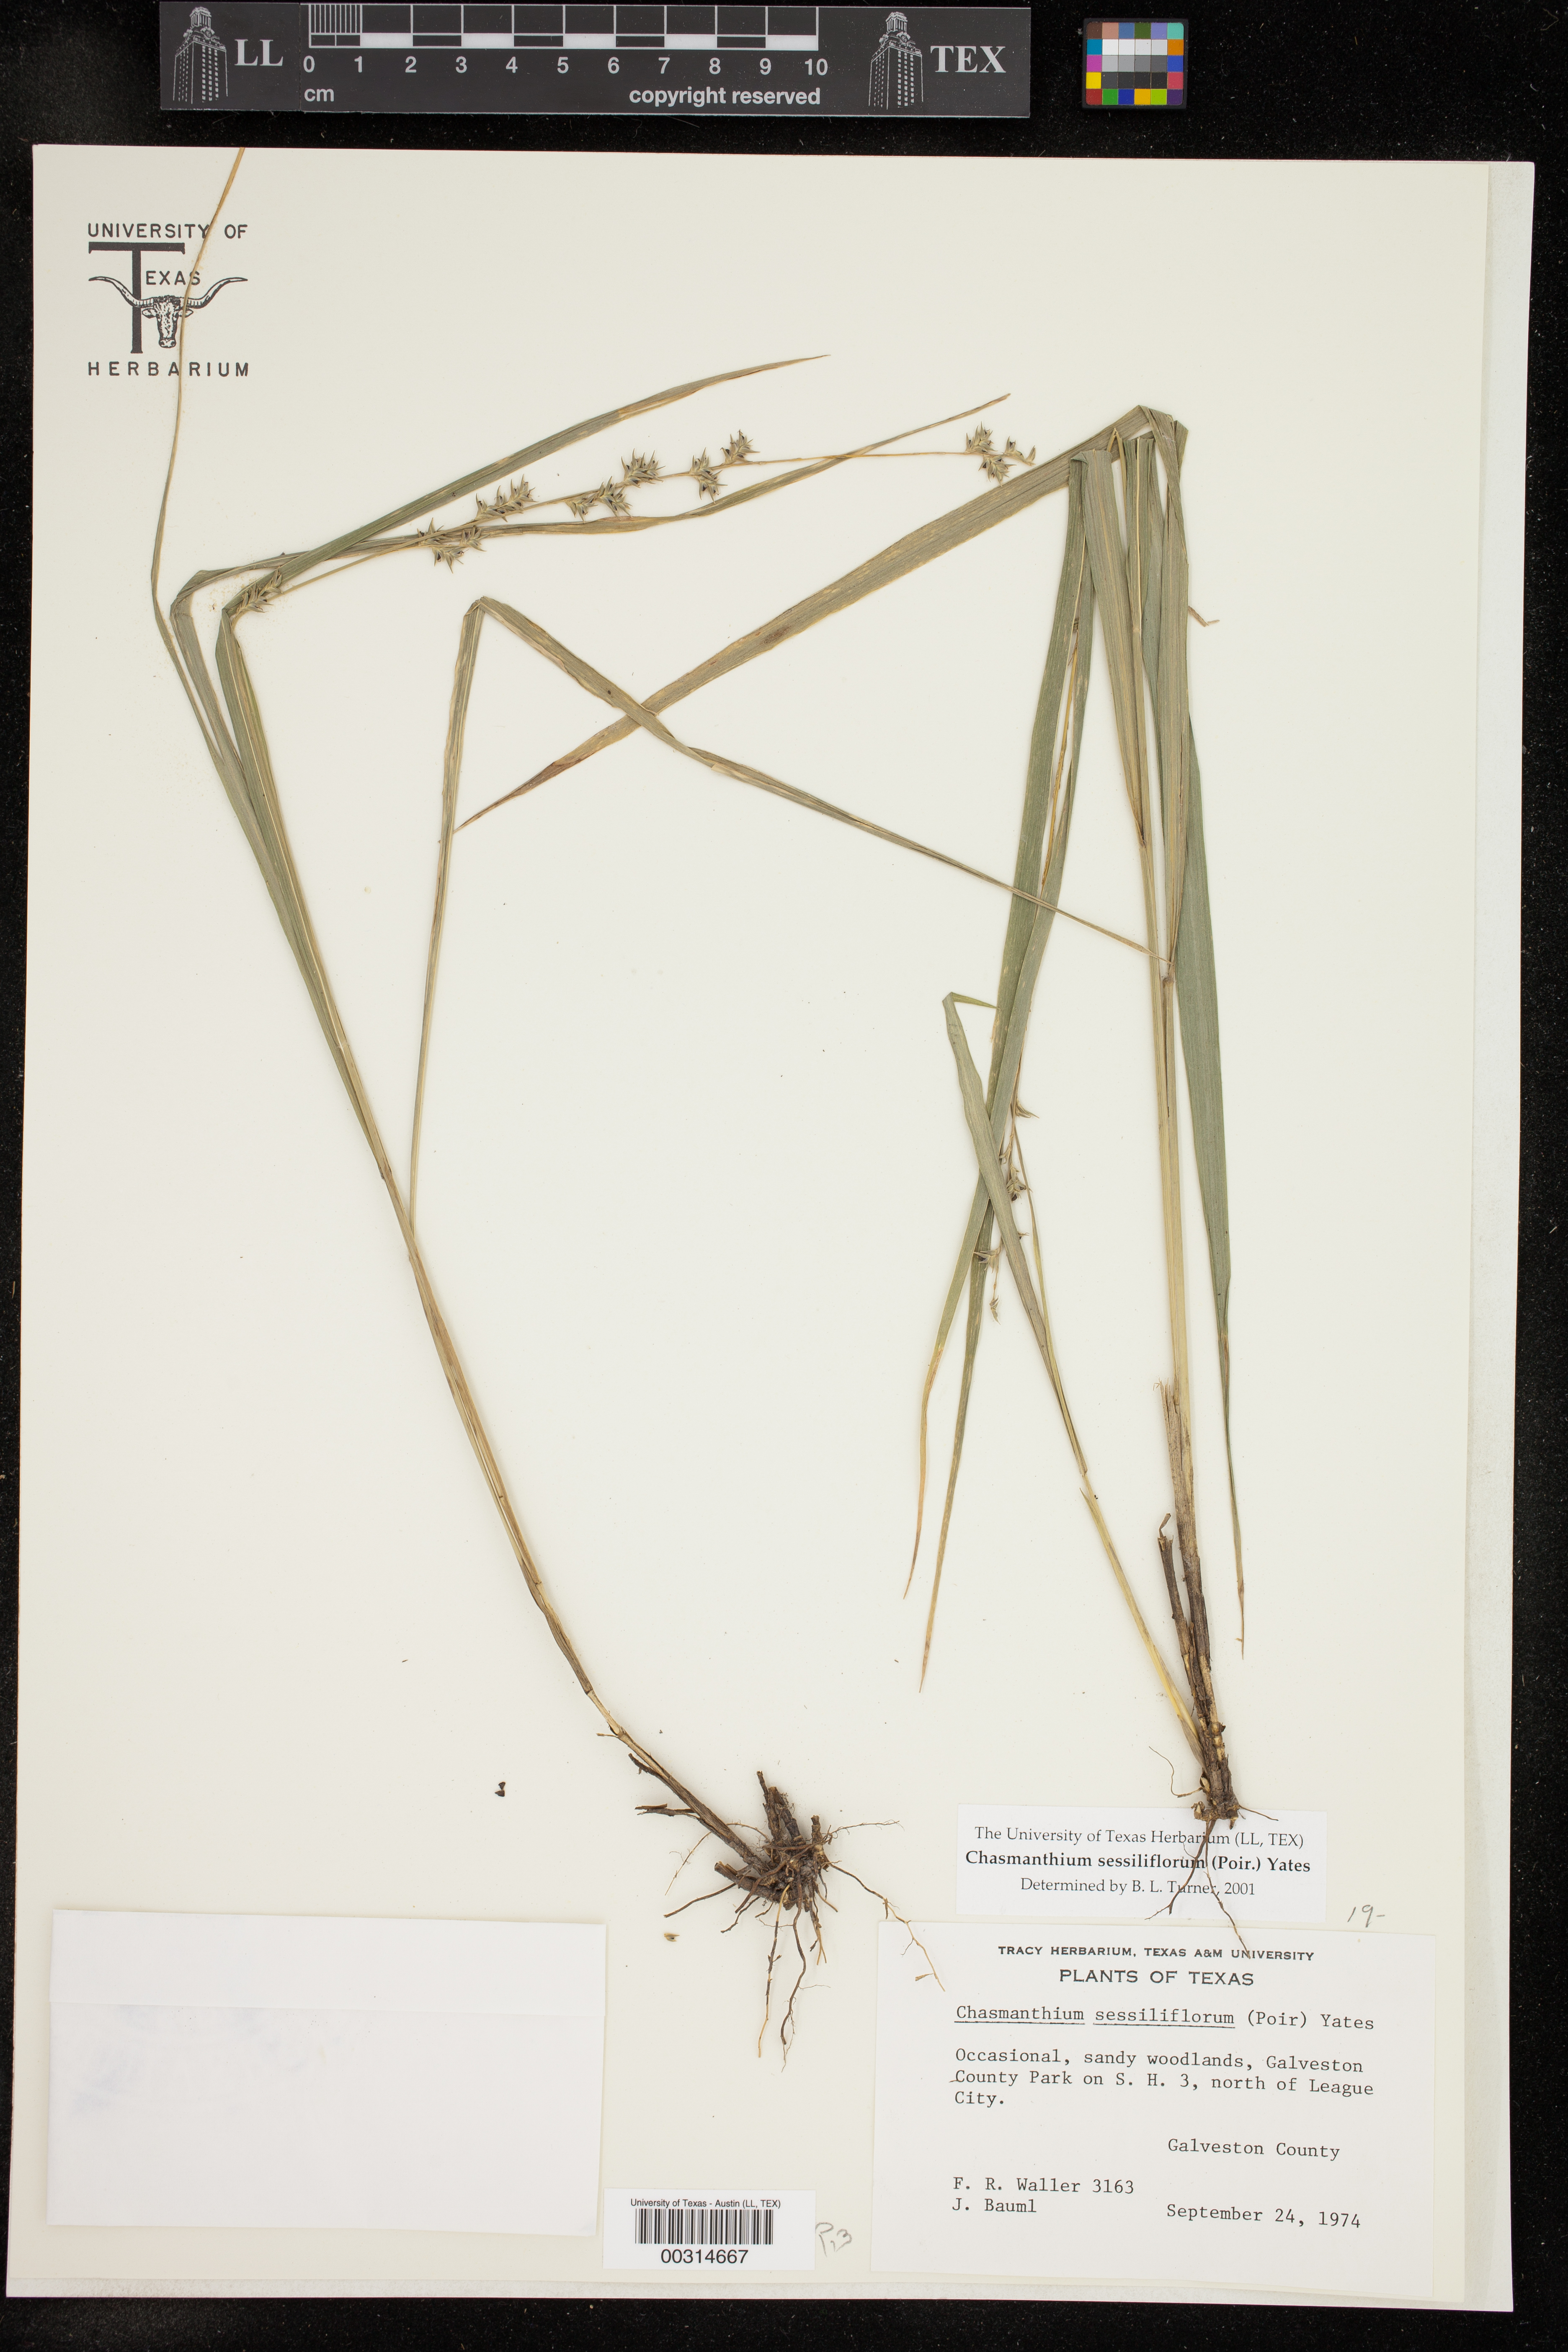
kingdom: Plantae
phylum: Tracheophyta
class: Liliopsida
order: Poales
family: Poaceae
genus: Chasmanthium
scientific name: Chasmanthium laxum
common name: Slender chasmanthium
